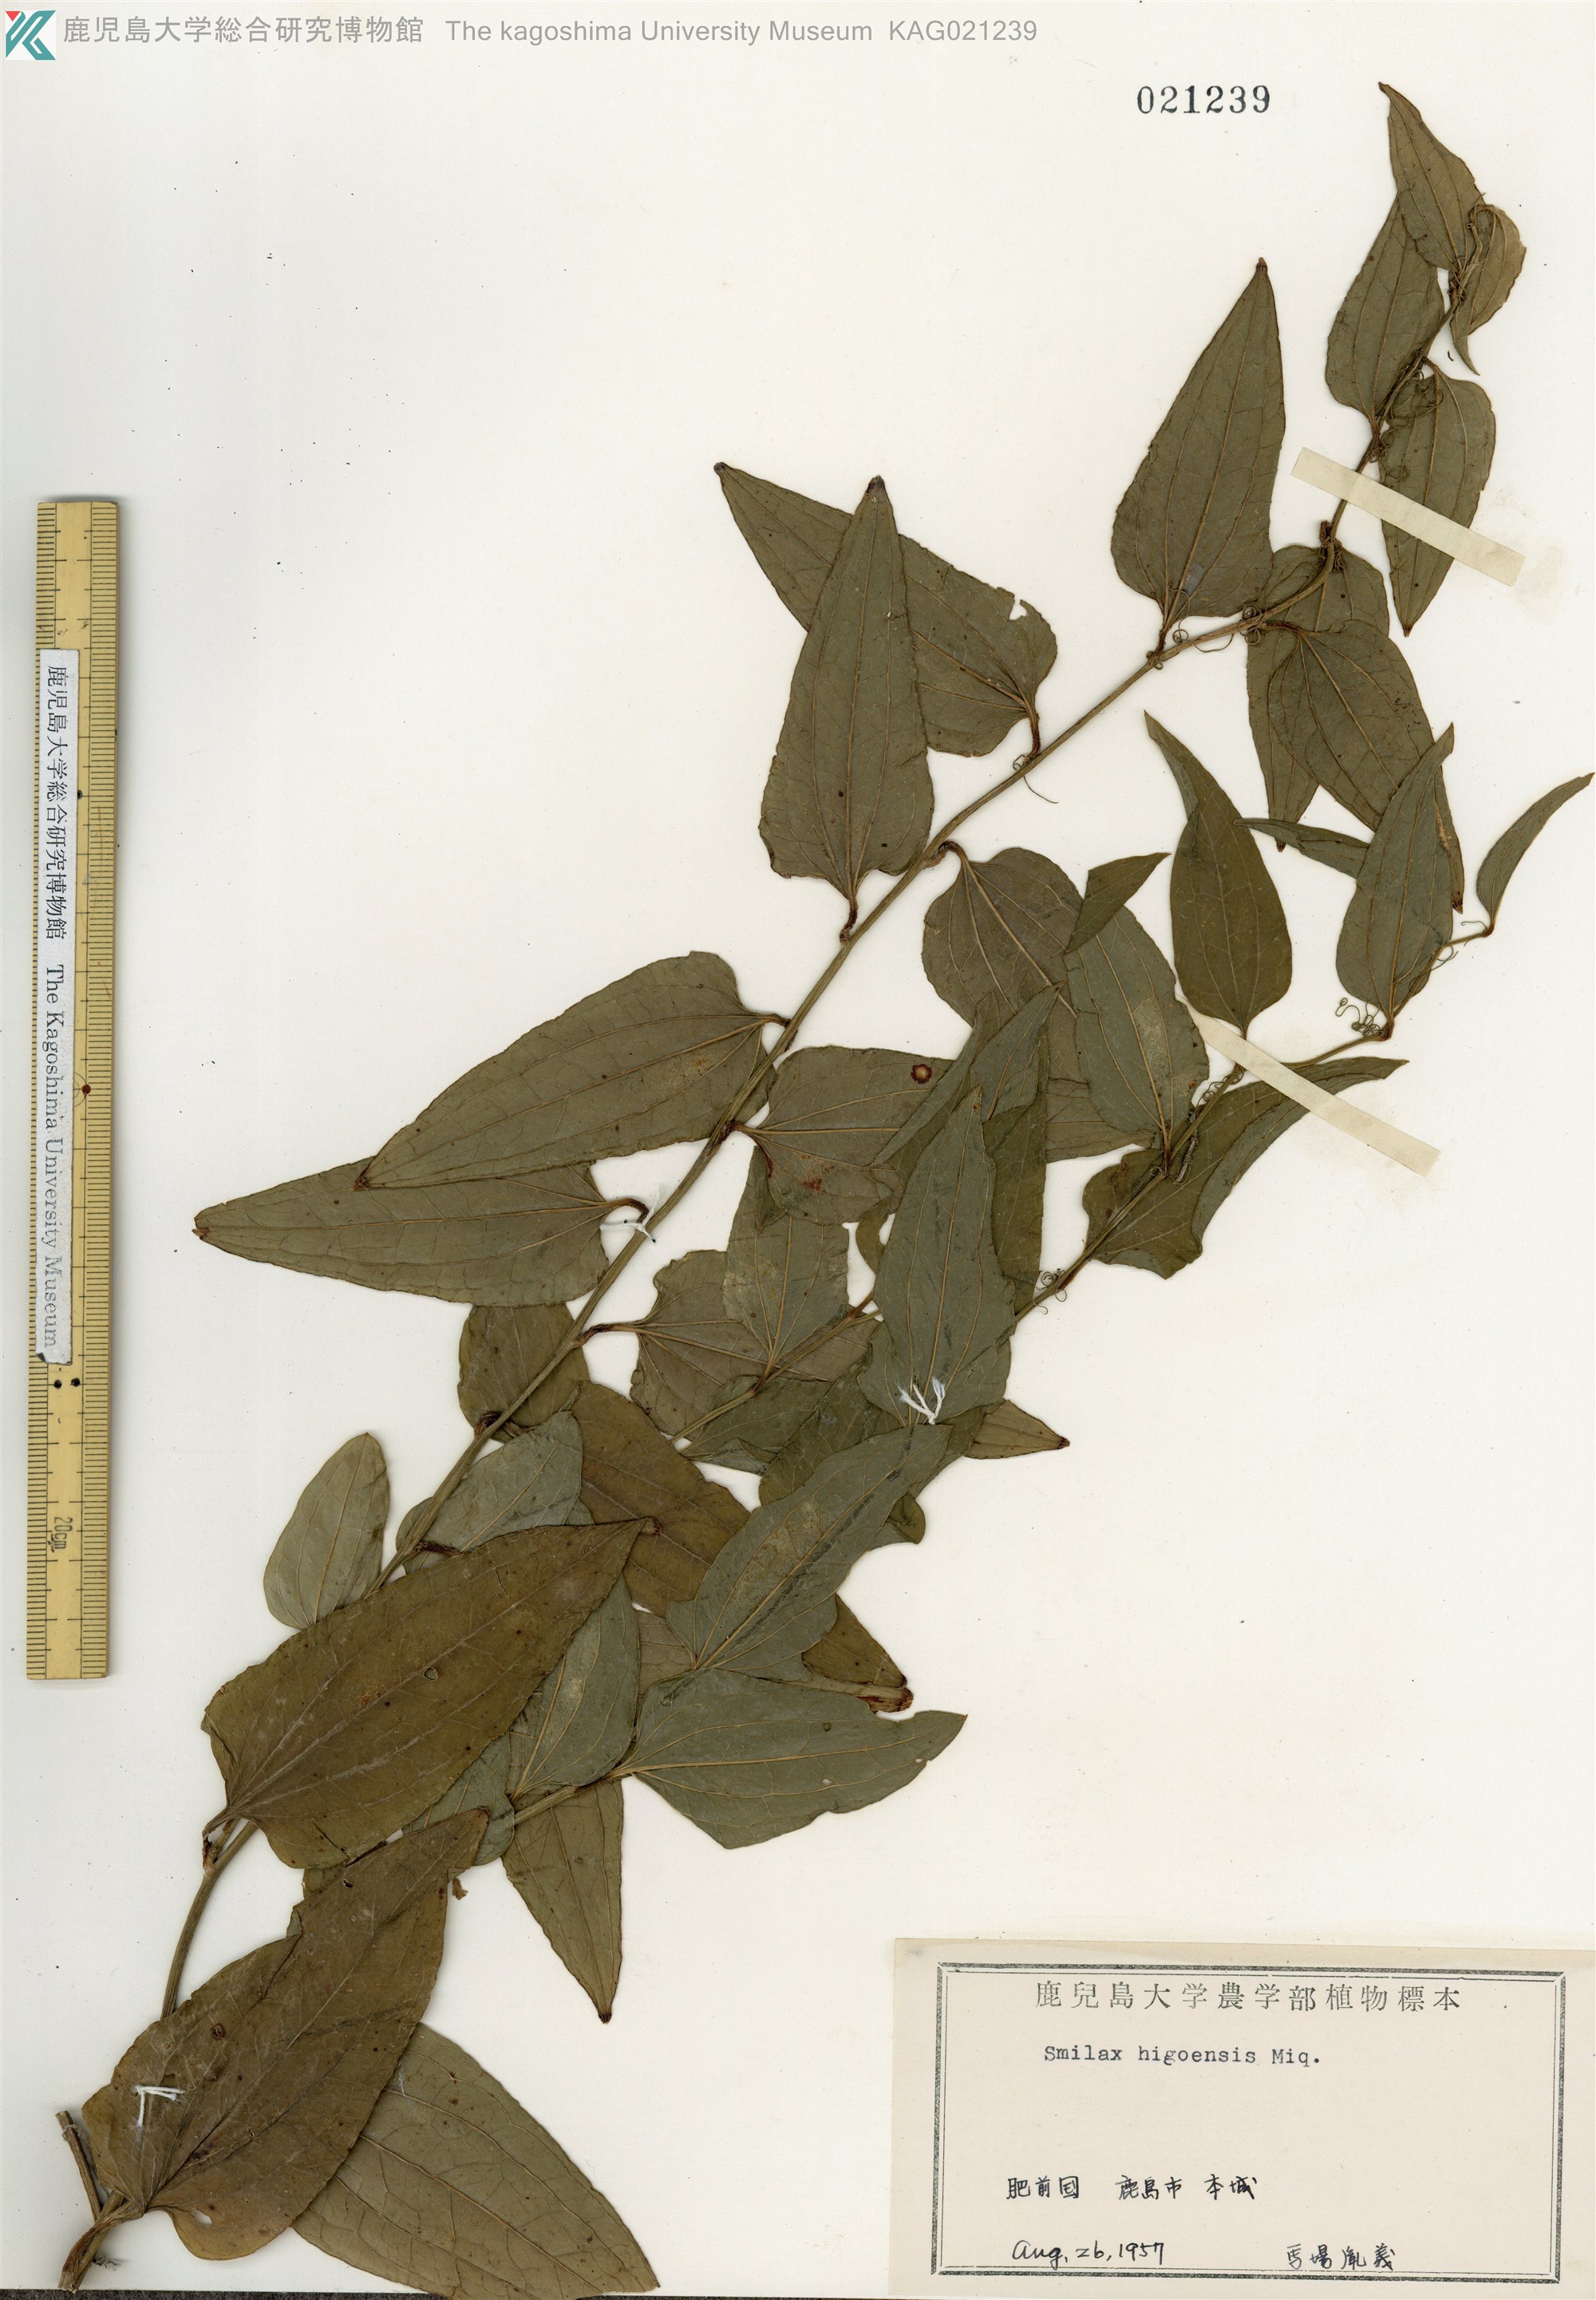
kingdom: Plantae
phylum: Tracheophyta
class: Liliopsida
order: Liliales
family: Smilacaceae
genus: Smilax
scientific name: Smilax riparia
